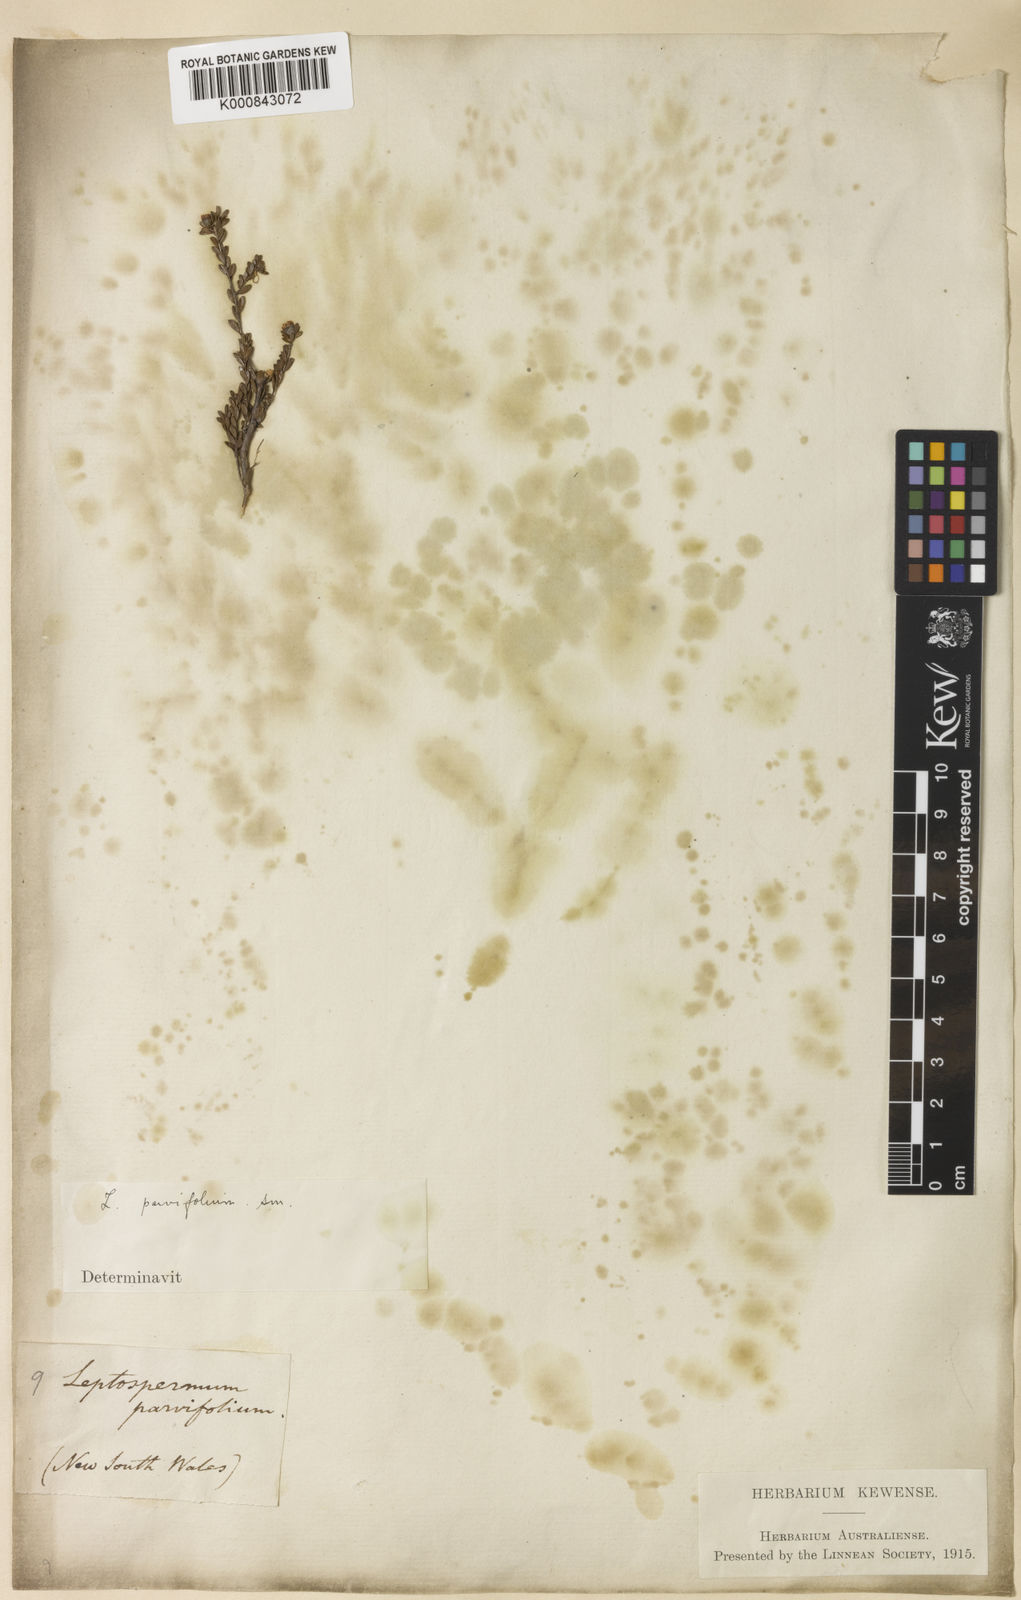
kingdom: Plantae
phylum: Tracheophyta
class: Magnoliopsida
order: Myrtales
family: Myrtaceae
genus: Leptospermum
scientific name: Leptospermum parvifolium
